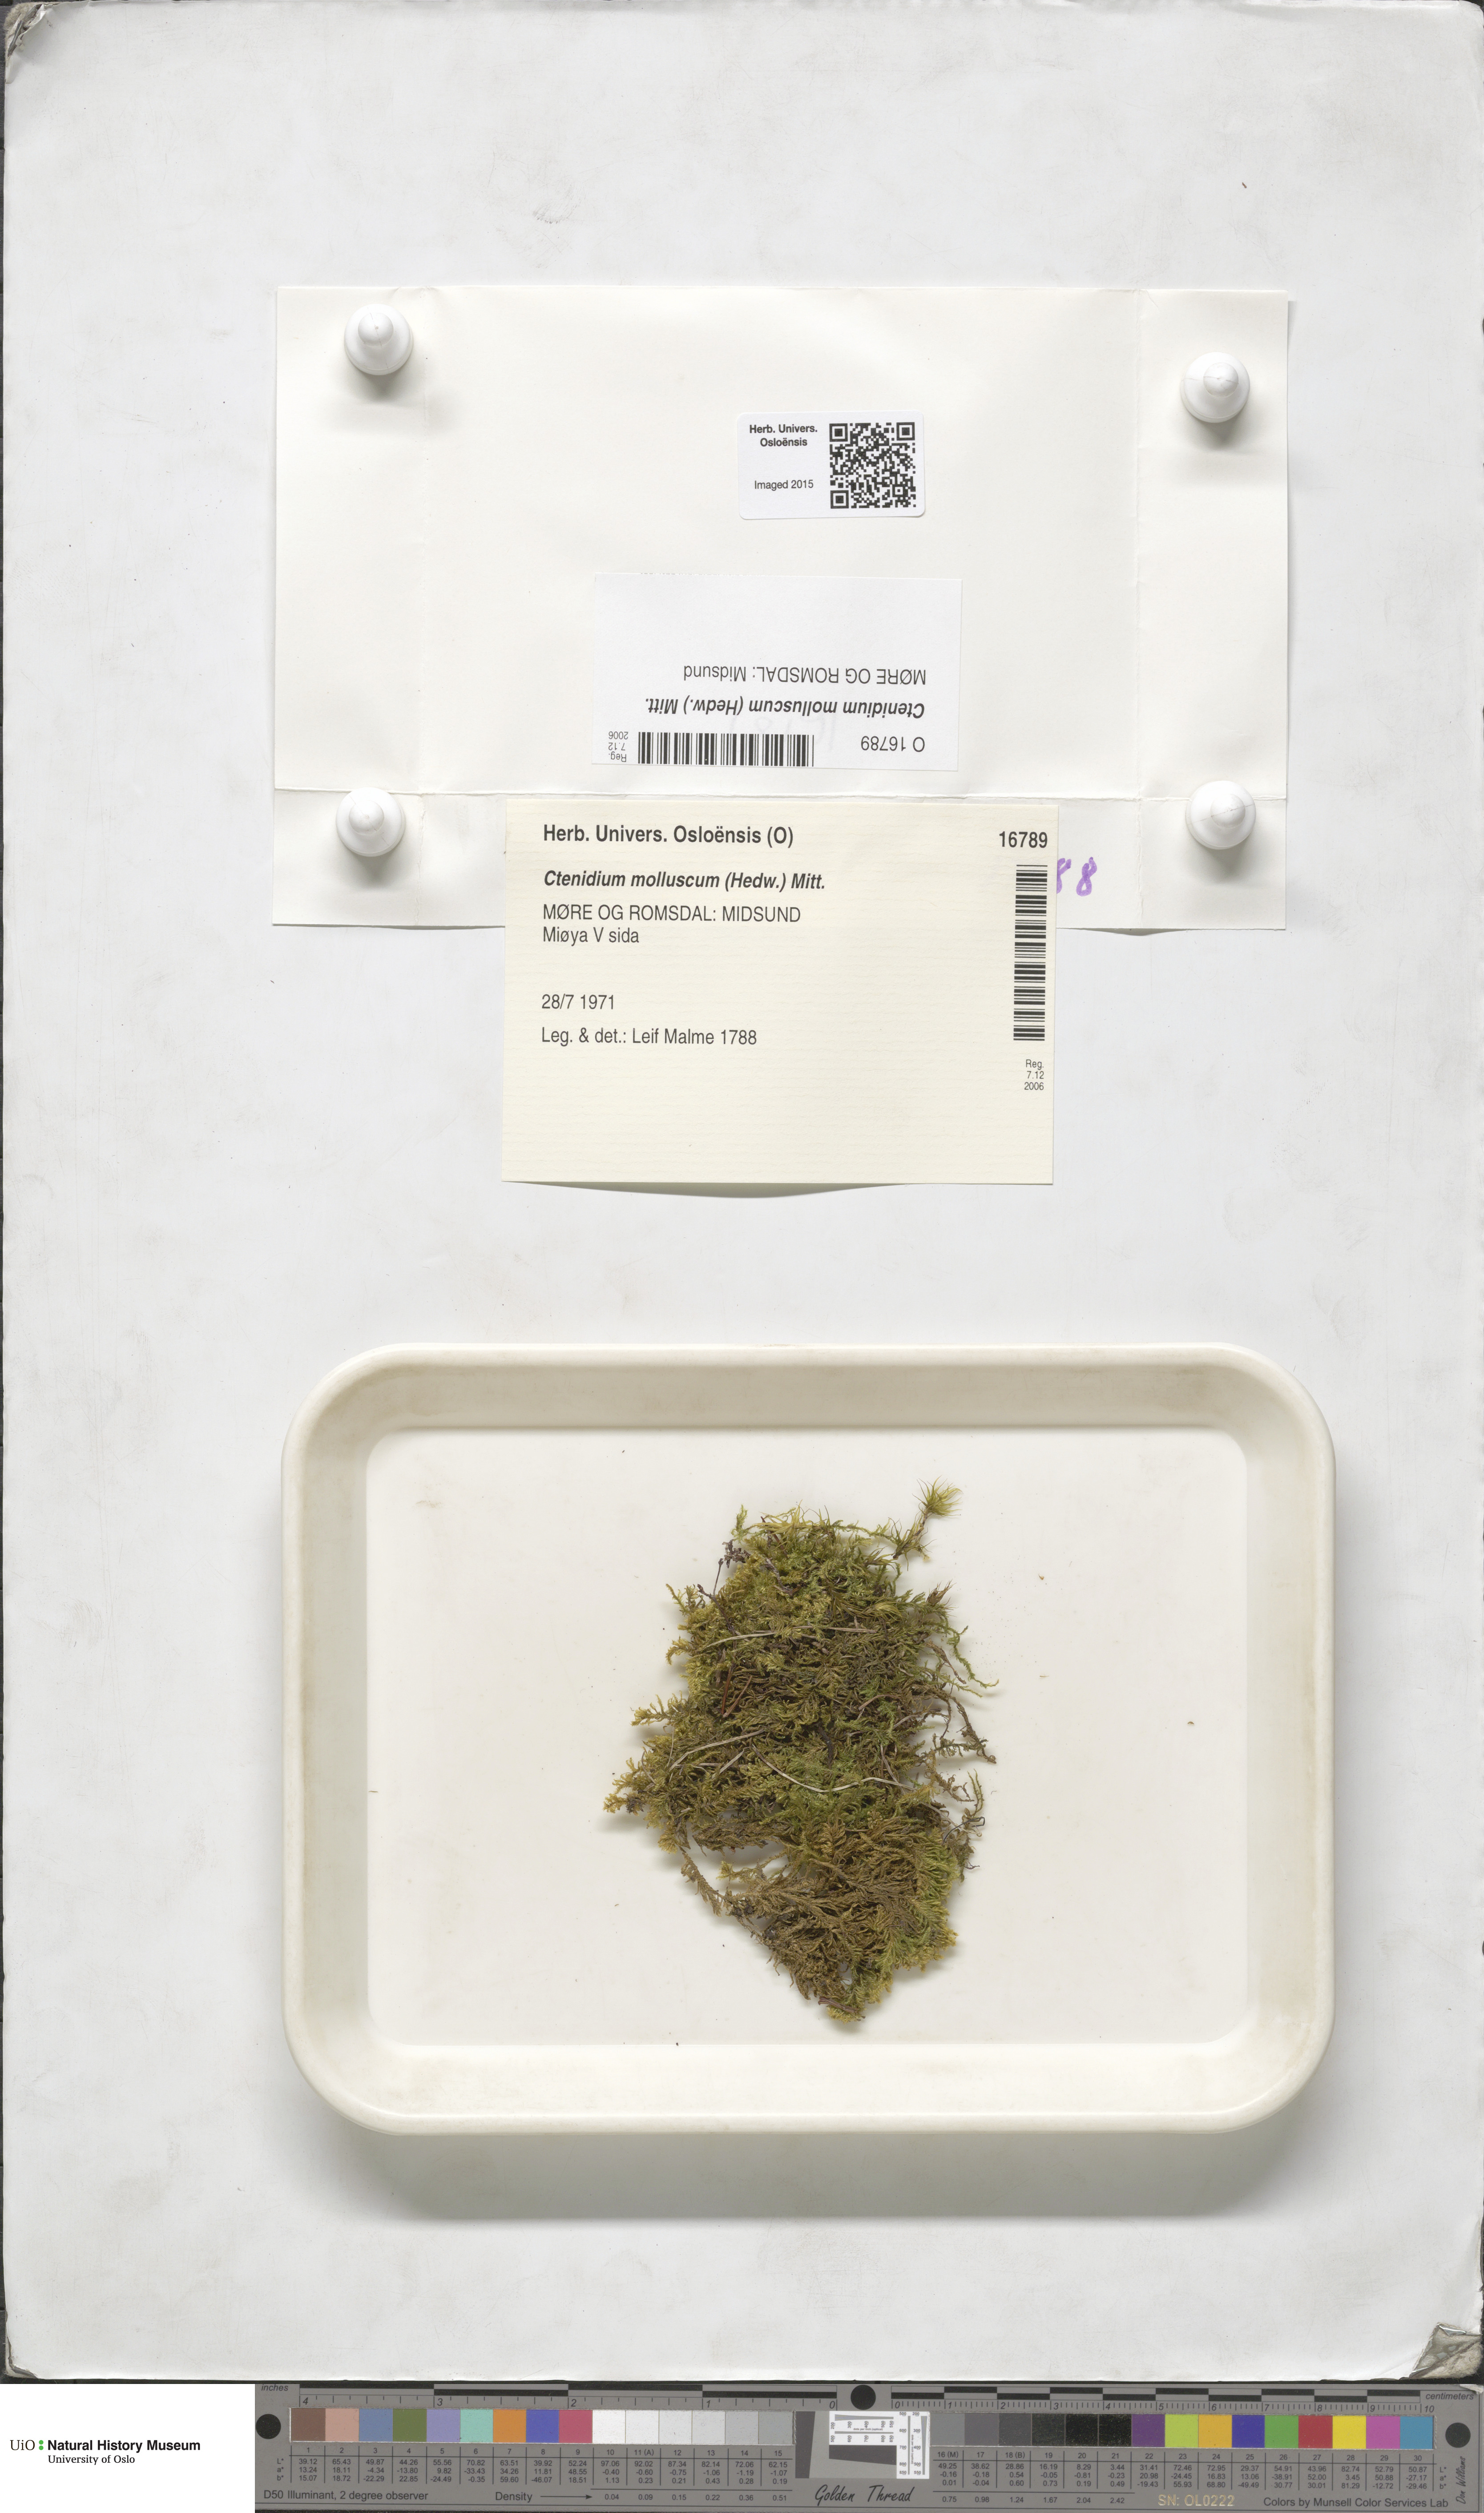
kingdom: Plantae
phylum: Bryophyta
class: Bryopsida
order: Hypnales
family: Myuriaceae
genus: Ctenidium
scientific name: Ctenidium molluscum
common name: Chalk comb-moss
